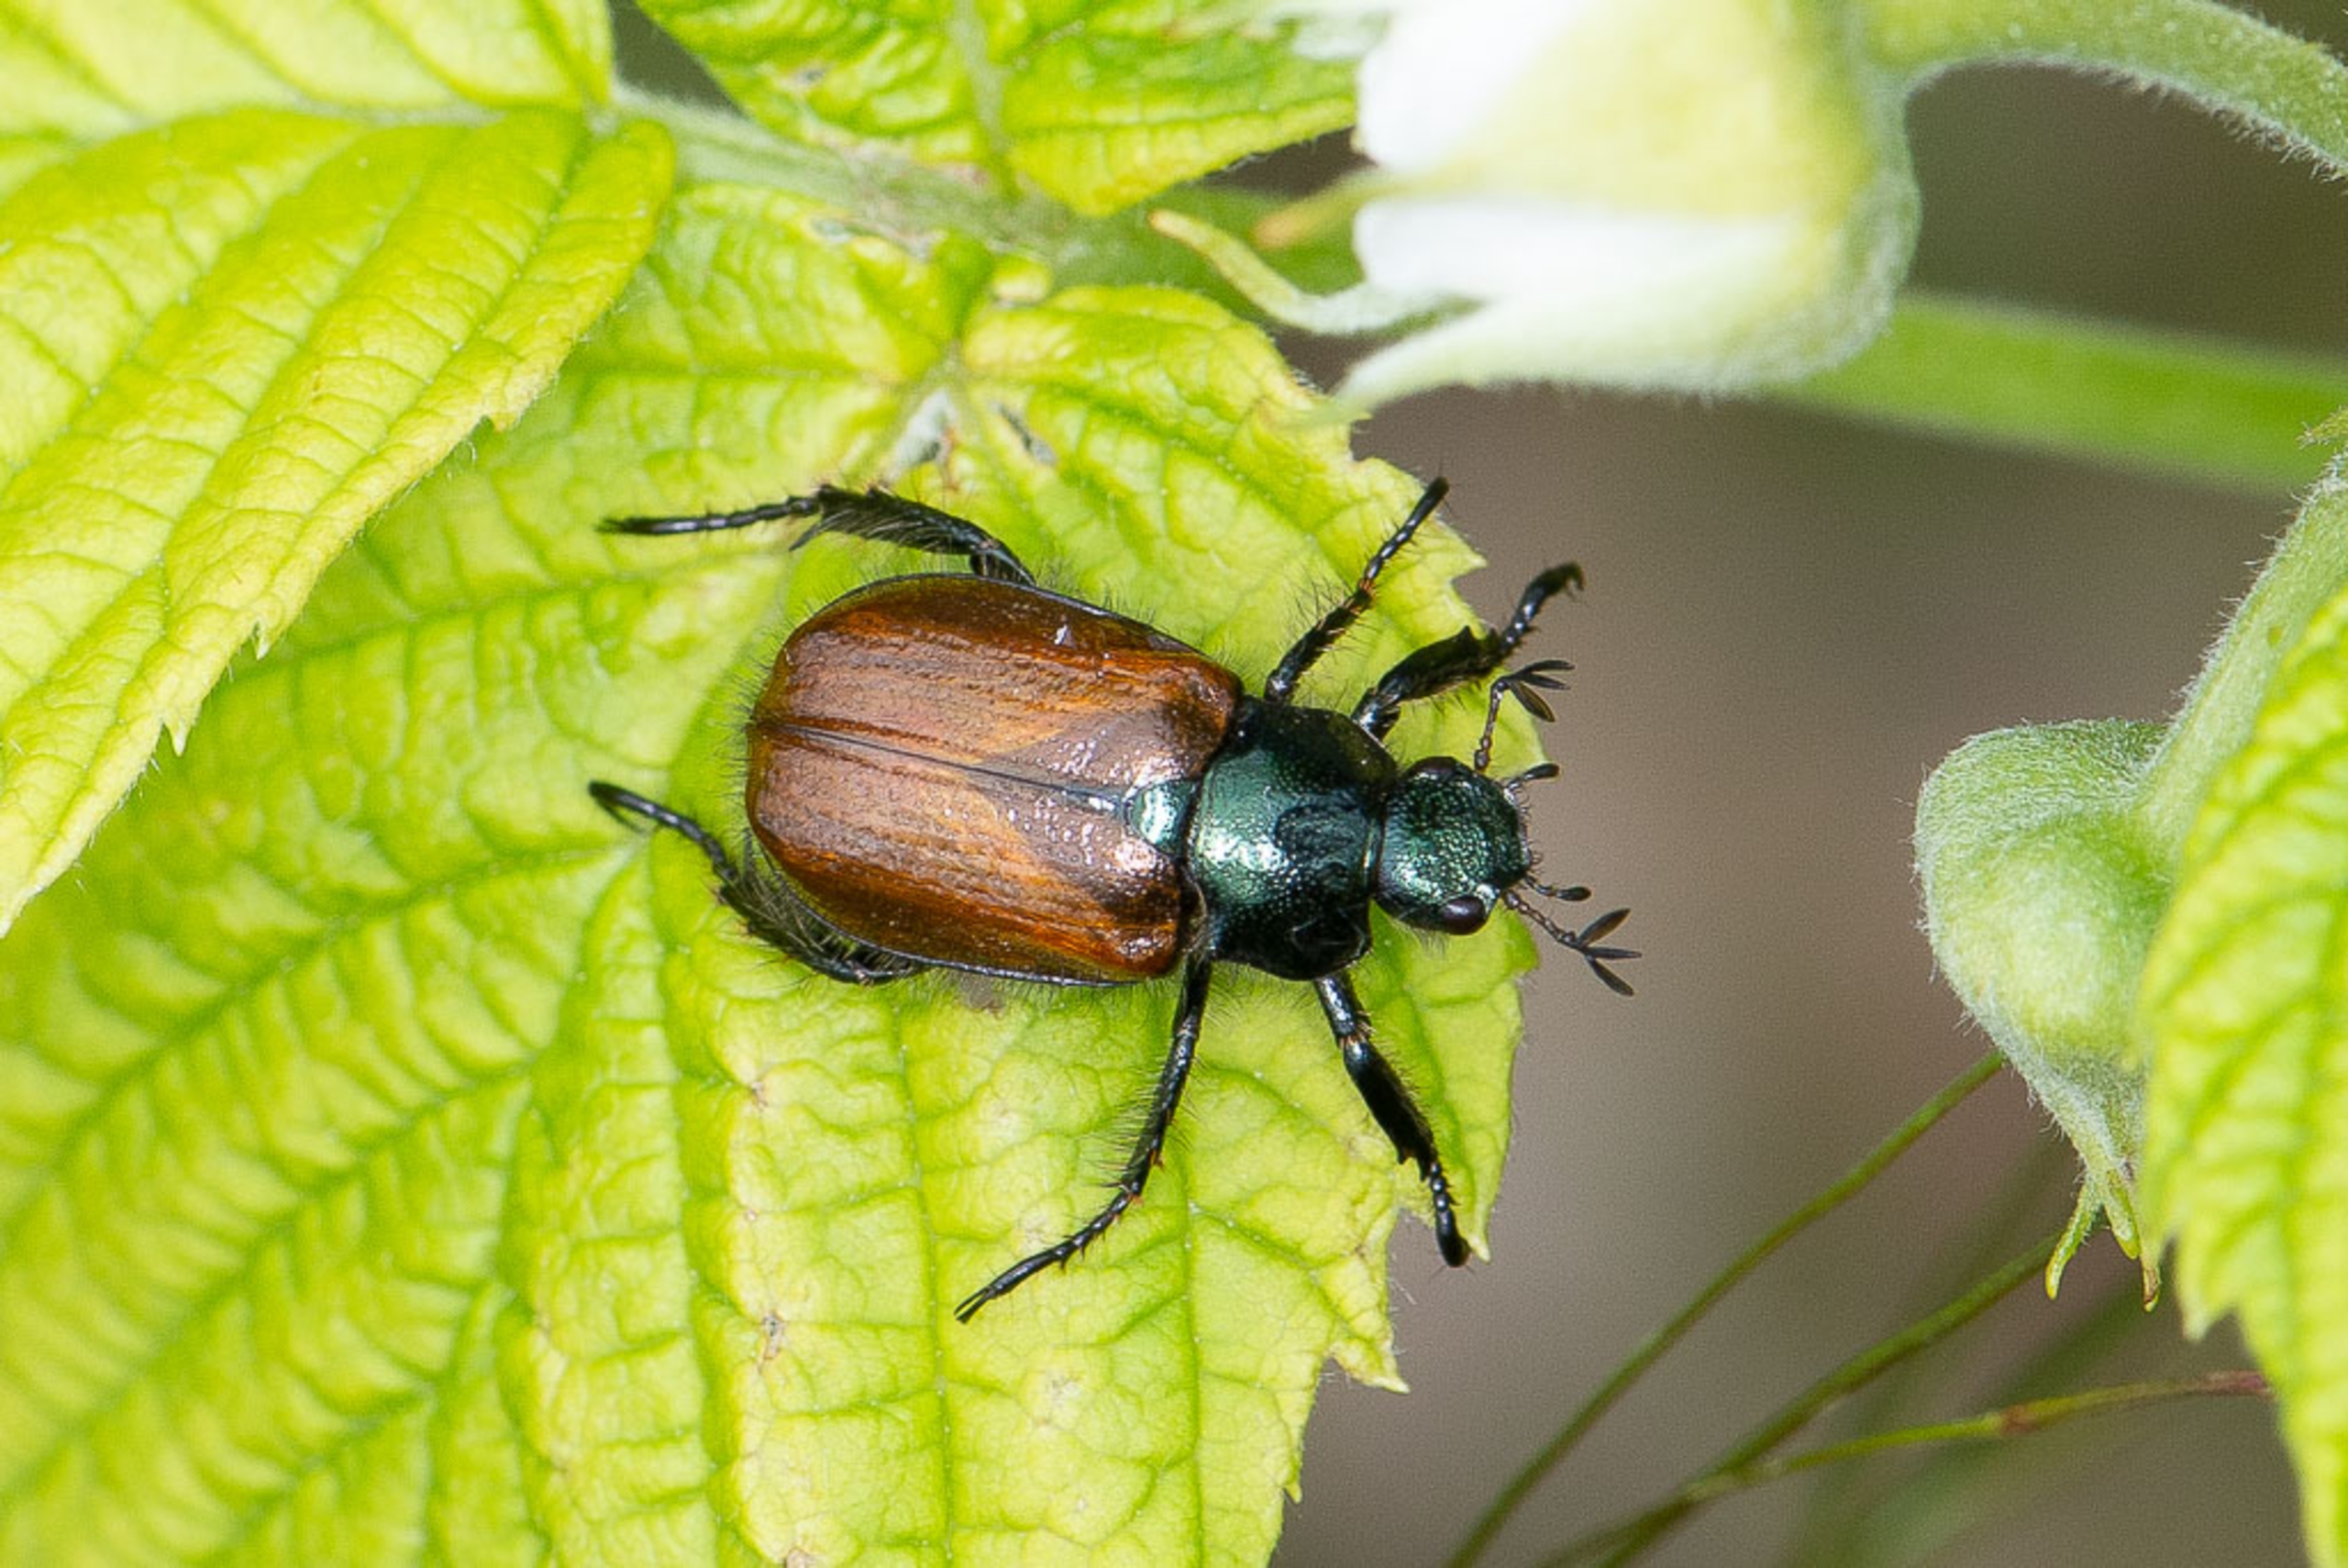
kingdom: Animalia
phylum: Arthropoda
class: Insecta
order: Coleoptera
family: Scarabaeidae
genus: Phyllopertha
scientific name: Phyllopertha horticola
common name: Gåsebille
